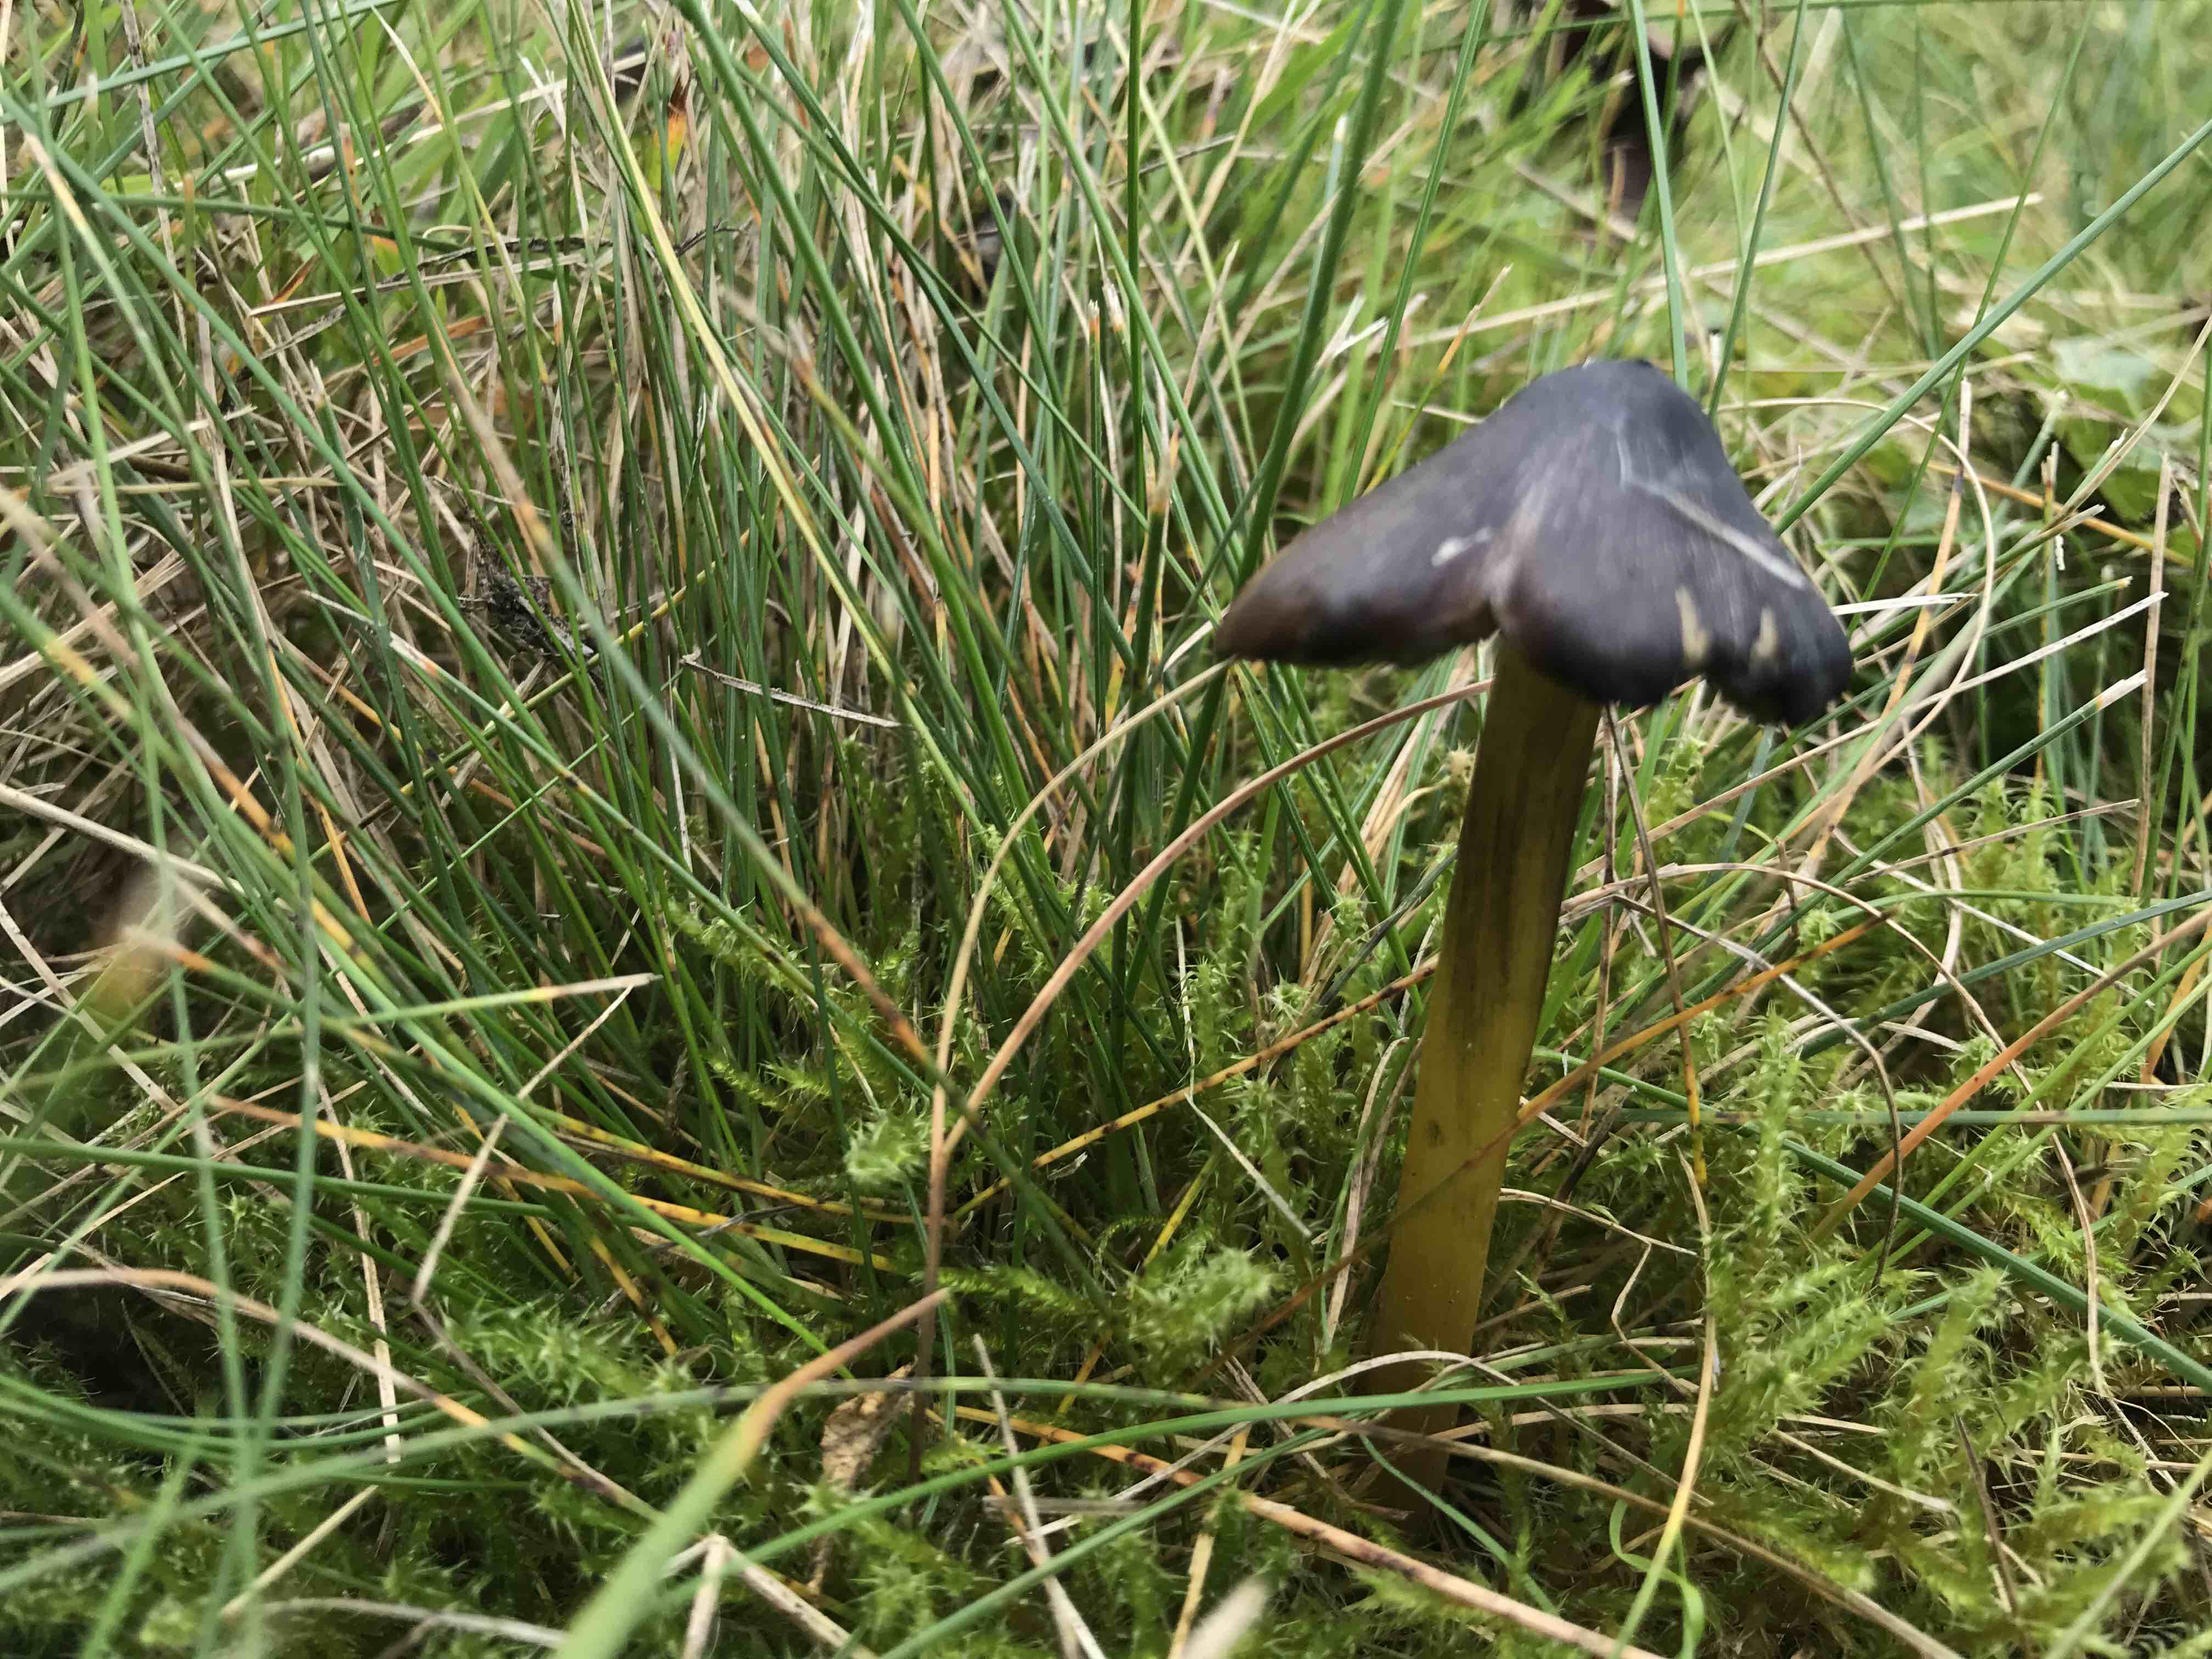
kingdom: Fungi
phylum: Basidiomycota
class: Agaricomycetes
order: Agaricales
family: Hygrophoraceae
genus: Hygrocybe
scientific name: Hygrocybe conica
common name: kegle-vokshat
